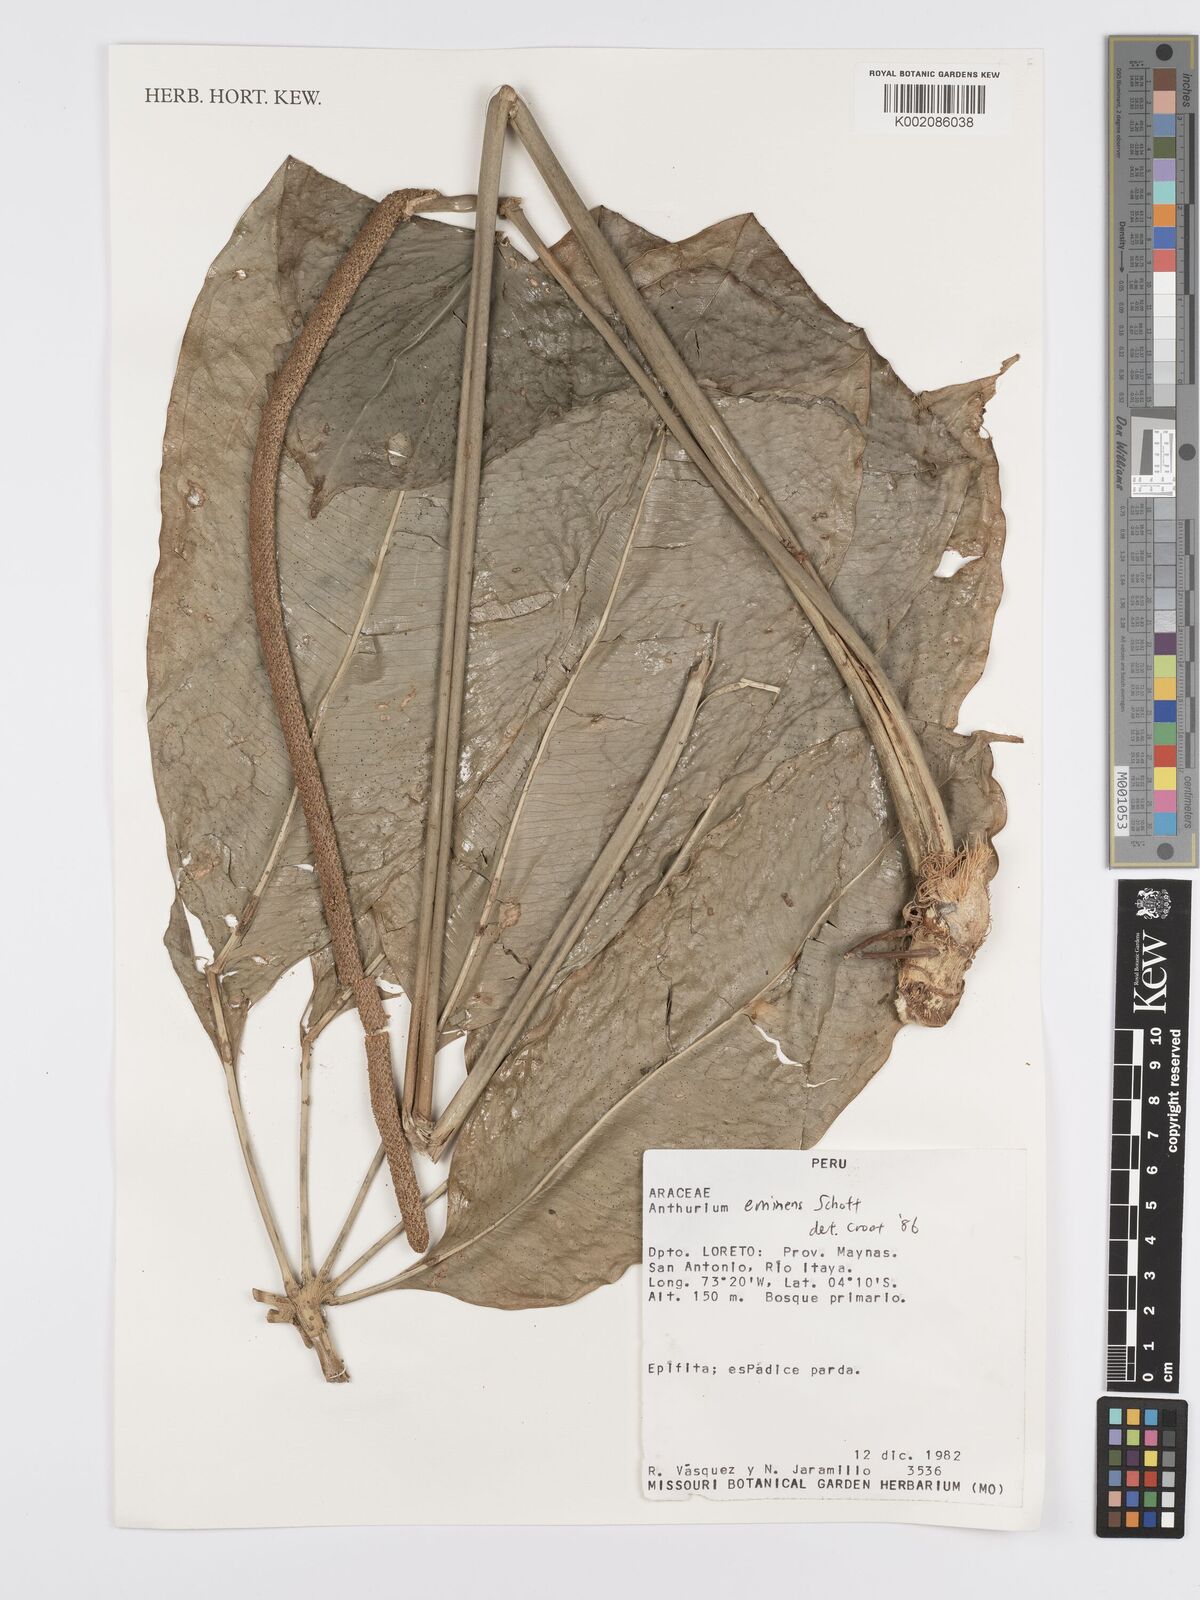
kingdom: Plantae
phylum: Tracheophyta
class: Liliopsida
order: Alismatales
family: Araceae
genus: Anthurium
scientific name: Anthurium eminens
